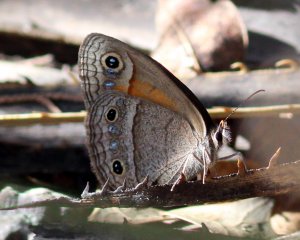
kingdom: Animalia
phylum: Arthropoda
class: Insecta
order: Lepidoptera
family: Nymphalidae
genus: Euptychia
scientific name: Euptychia rubricata
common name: Red Satyr
